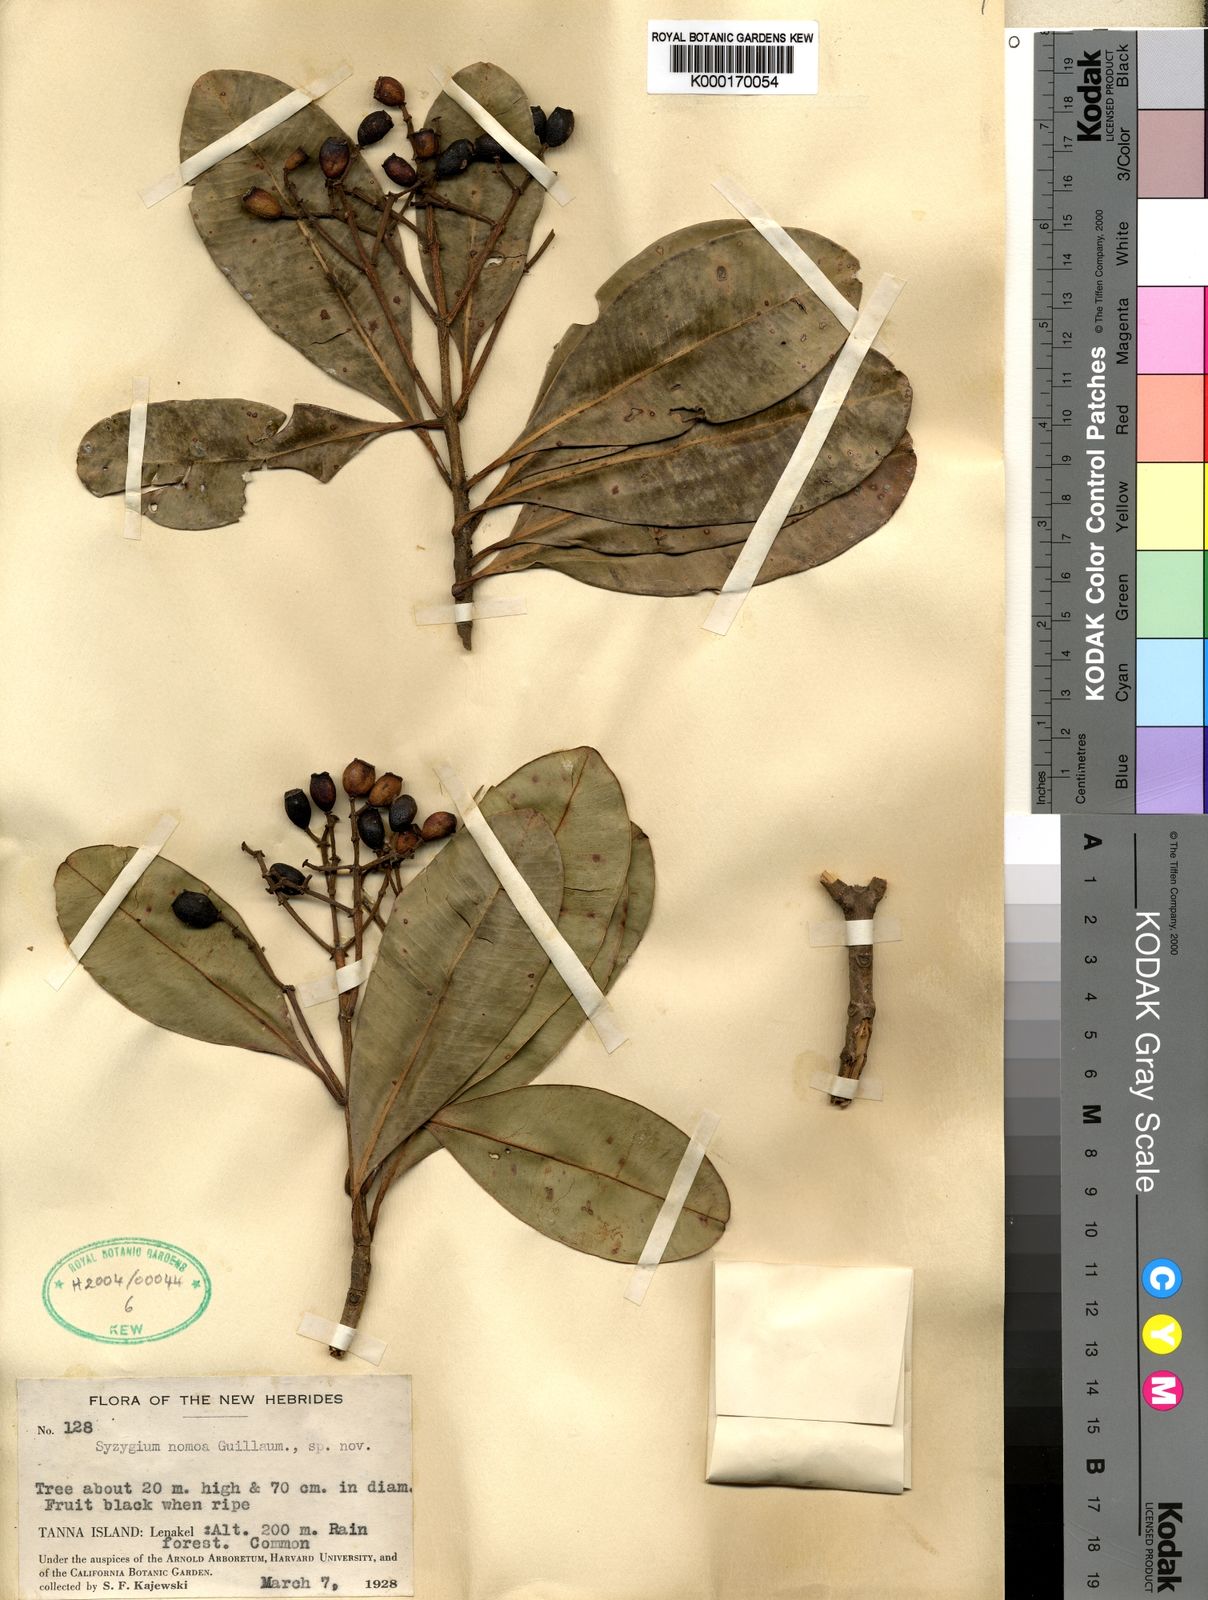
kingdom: Plantae
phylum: Tracheophyta
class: Magnoliopsida
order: Myrtales
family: Myrtaceae
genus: Syzygium
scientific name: Syzygium nomoa
